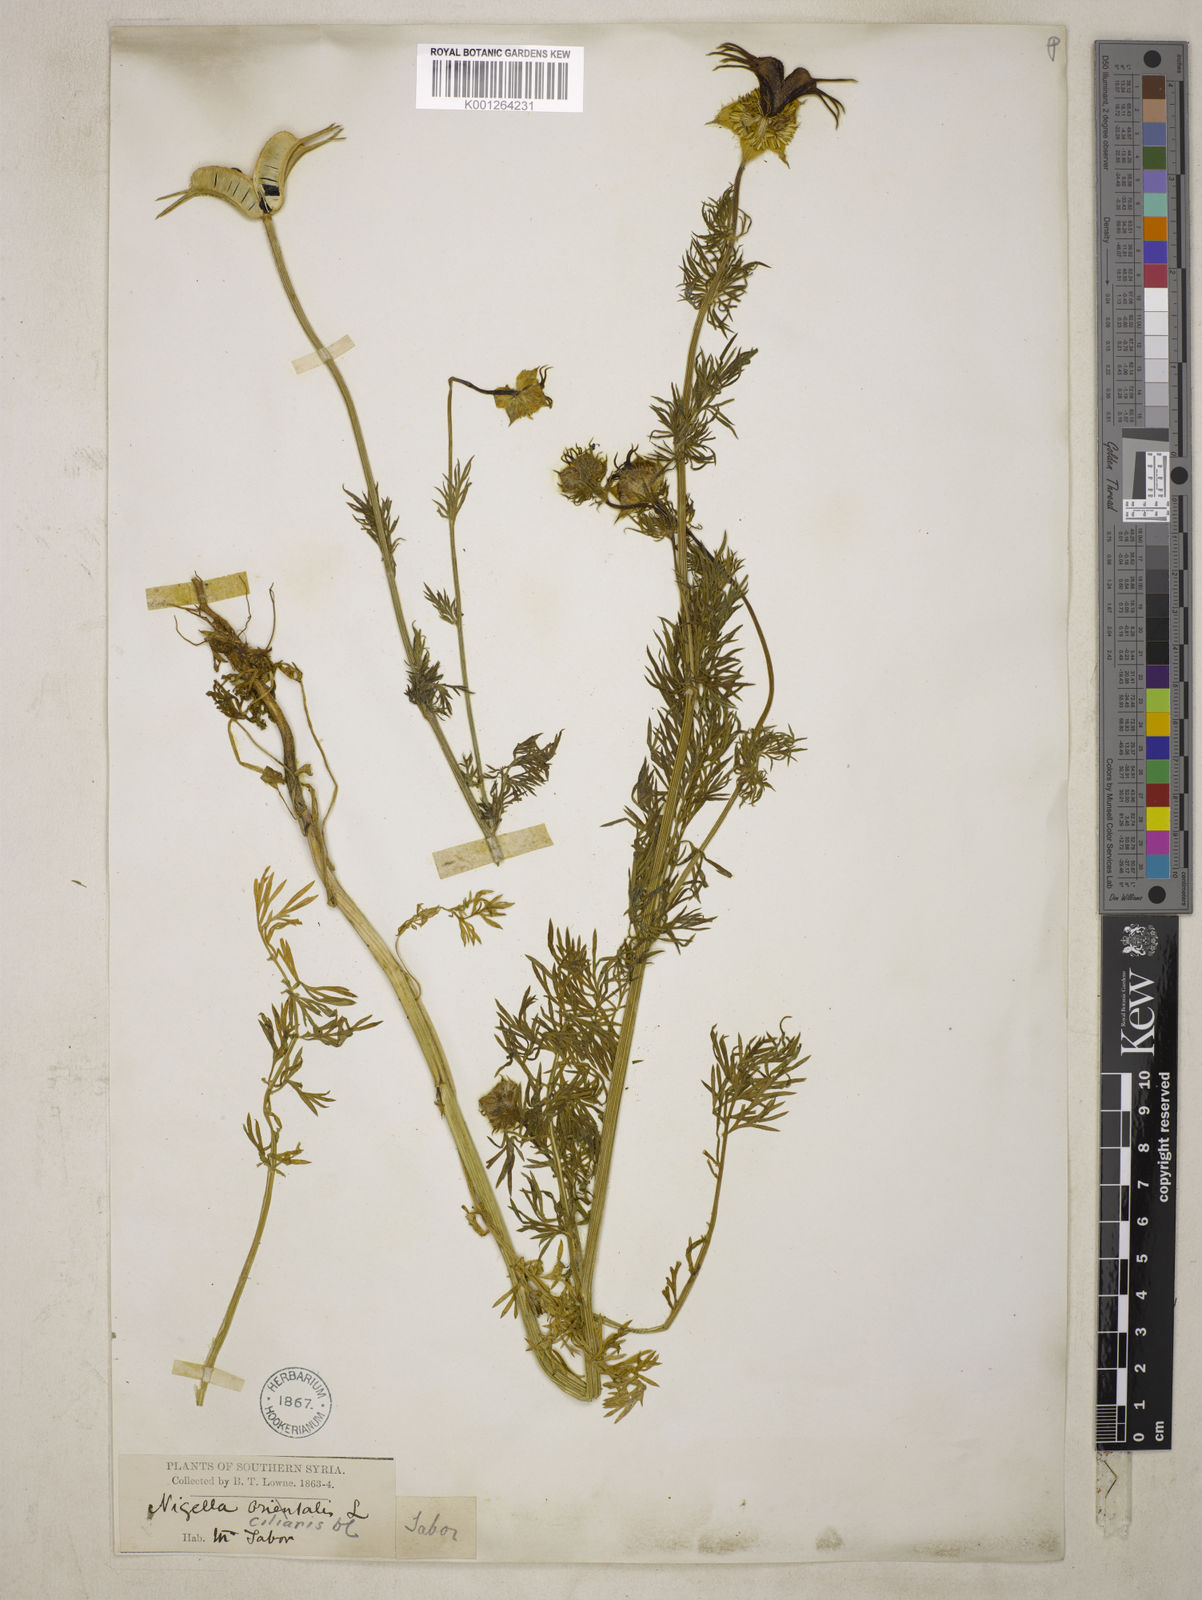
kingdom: Plantae
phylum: Tracheophyta
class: Magnoliopsida
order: Ranunculales
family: Ranunculaceae
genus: Nigella
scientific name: Nigella ciliaris
